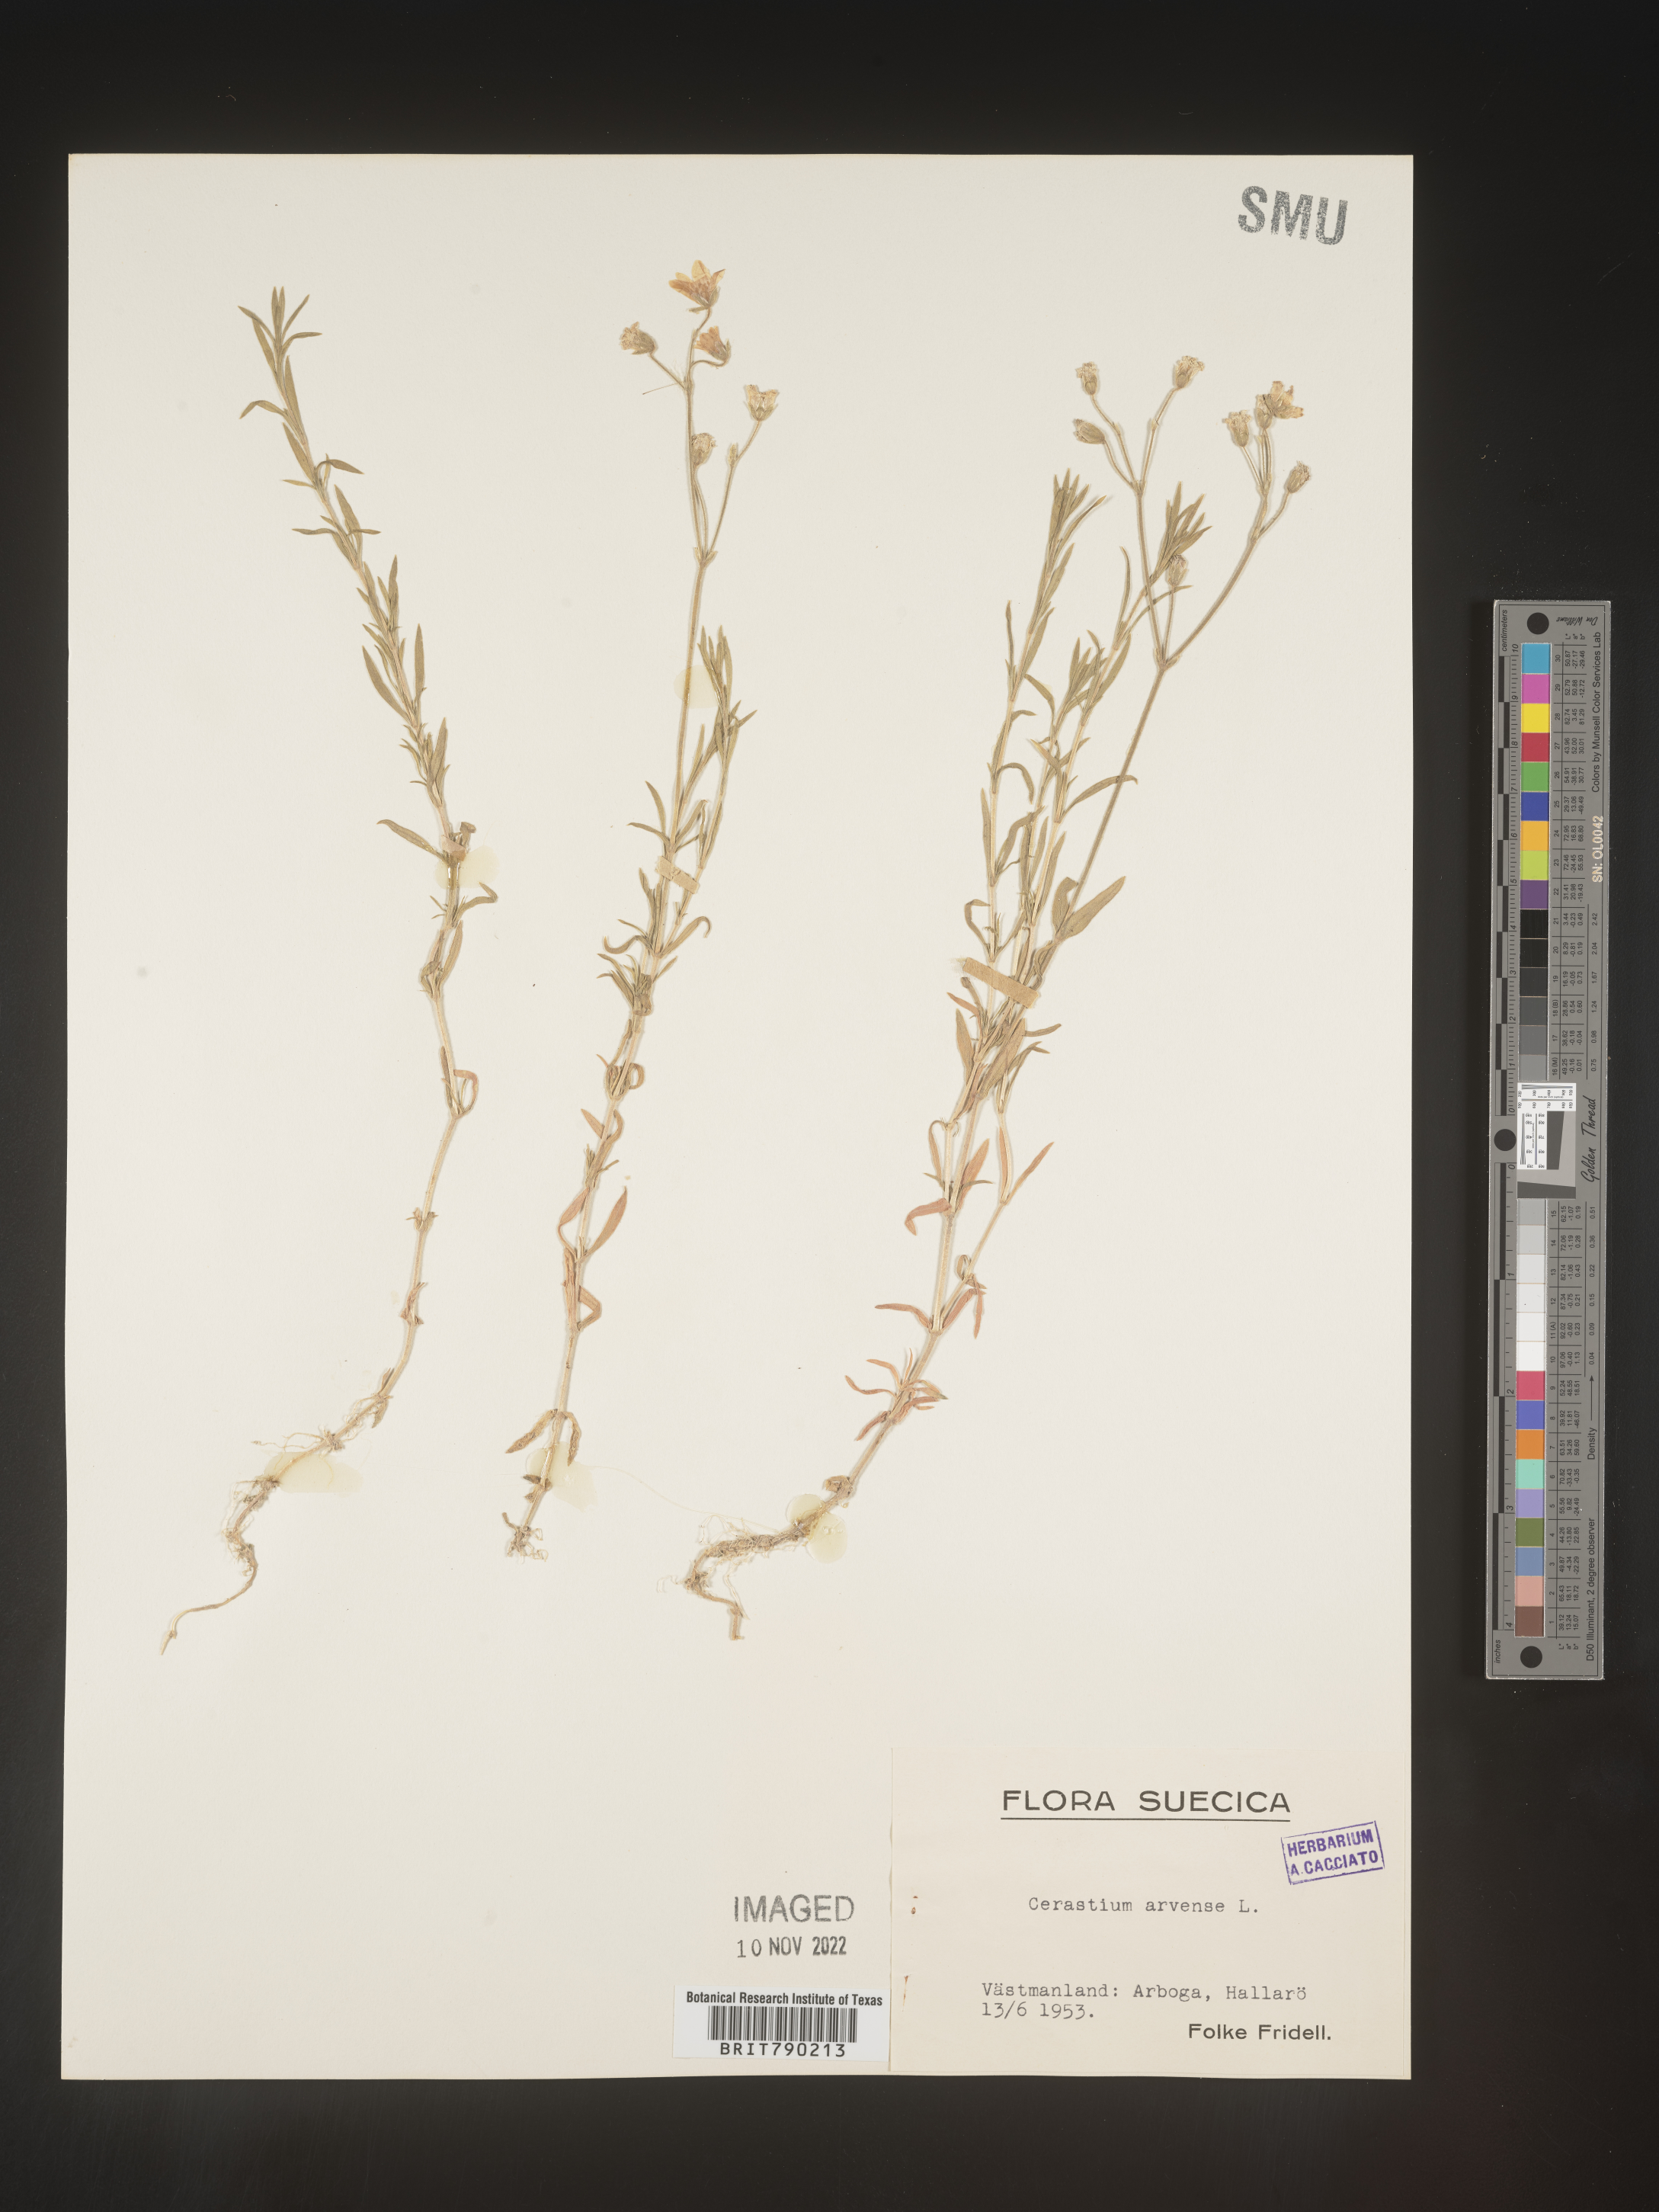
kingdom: Plantae
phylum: Tracheophyta
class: Magnoliopsida
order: Caryophyllales
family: Caryophyllaceae
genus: Cerastium
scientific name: Cerastium
